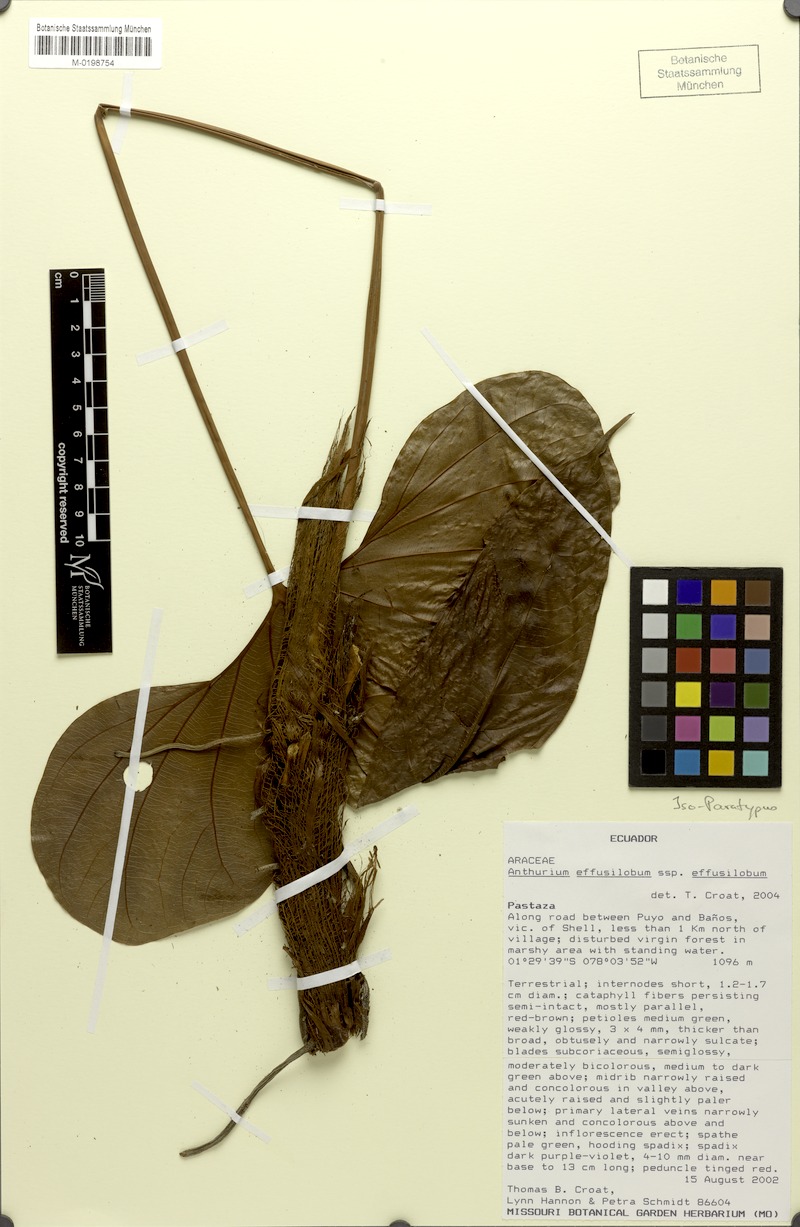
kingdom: Plantae
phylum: Tracheophyta
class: Liliopsida
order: Alismatales
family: Araceae
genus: Anthurium
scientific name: Anthurium effusilobum
